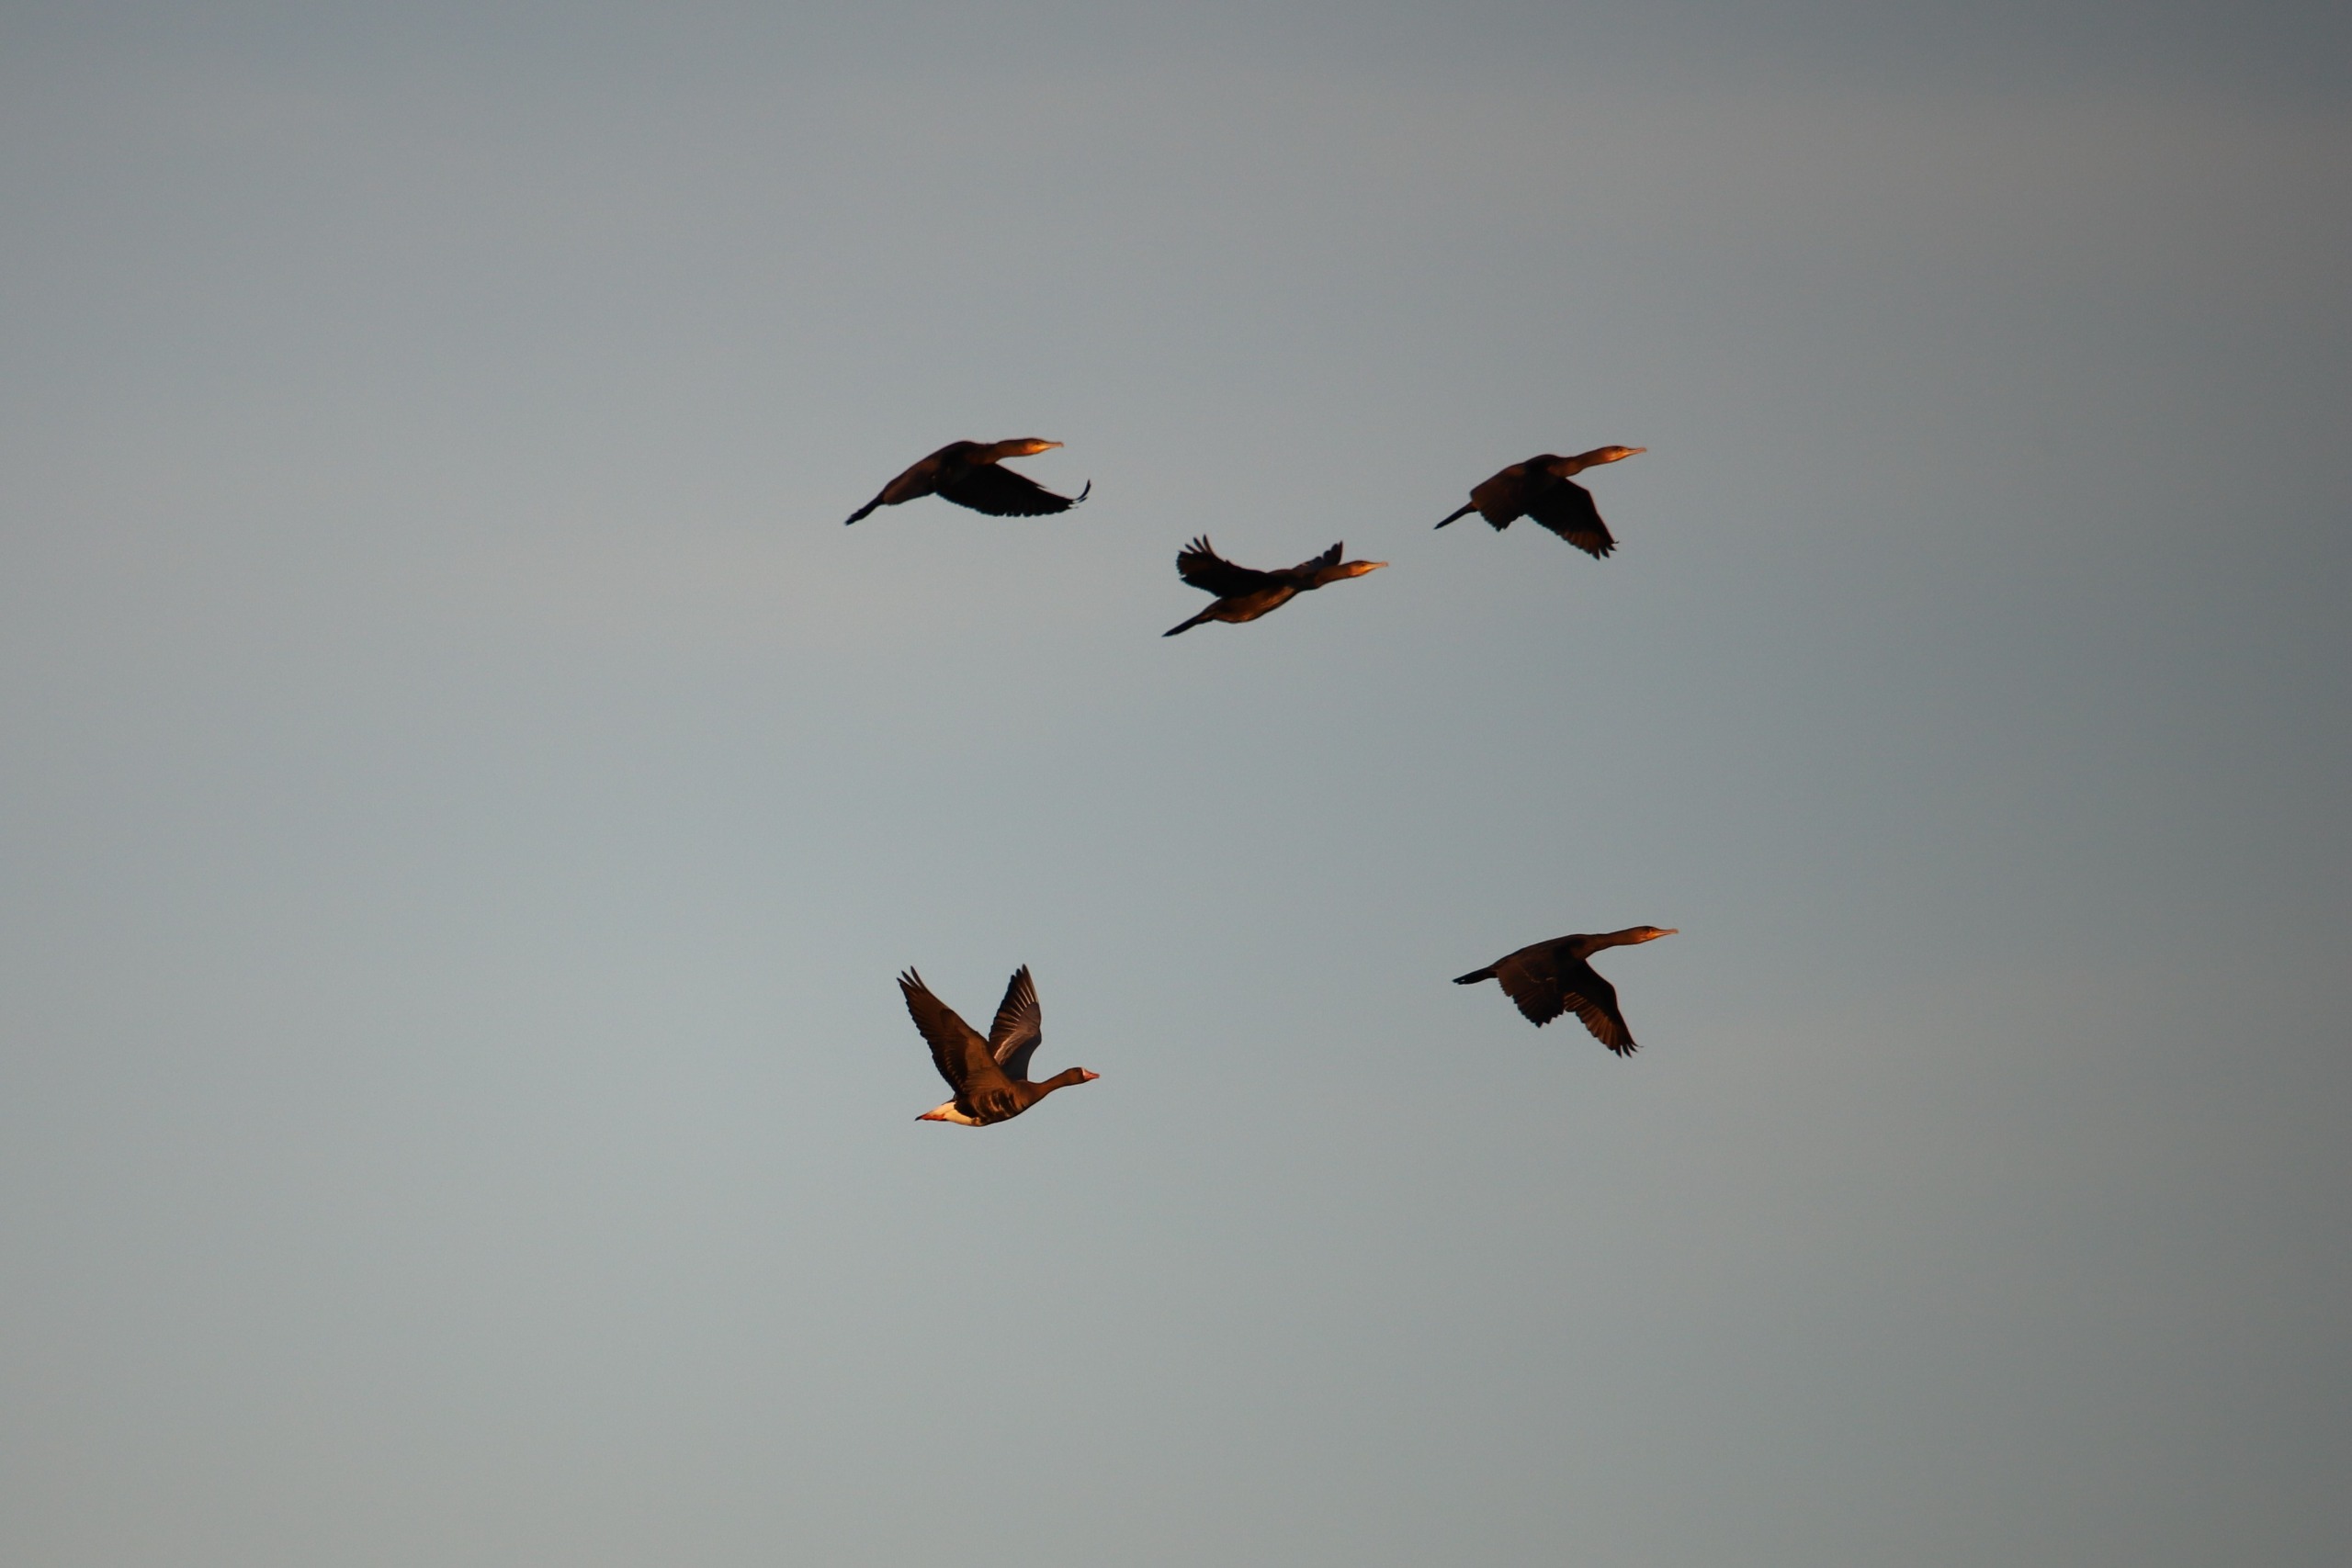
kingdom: Animalia
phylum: Chordata
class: Aves
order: Suliformes
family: Phalacrocoracidae
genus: Phalacrocorax
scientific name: Phalacrocorax carbo
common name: Skarv
